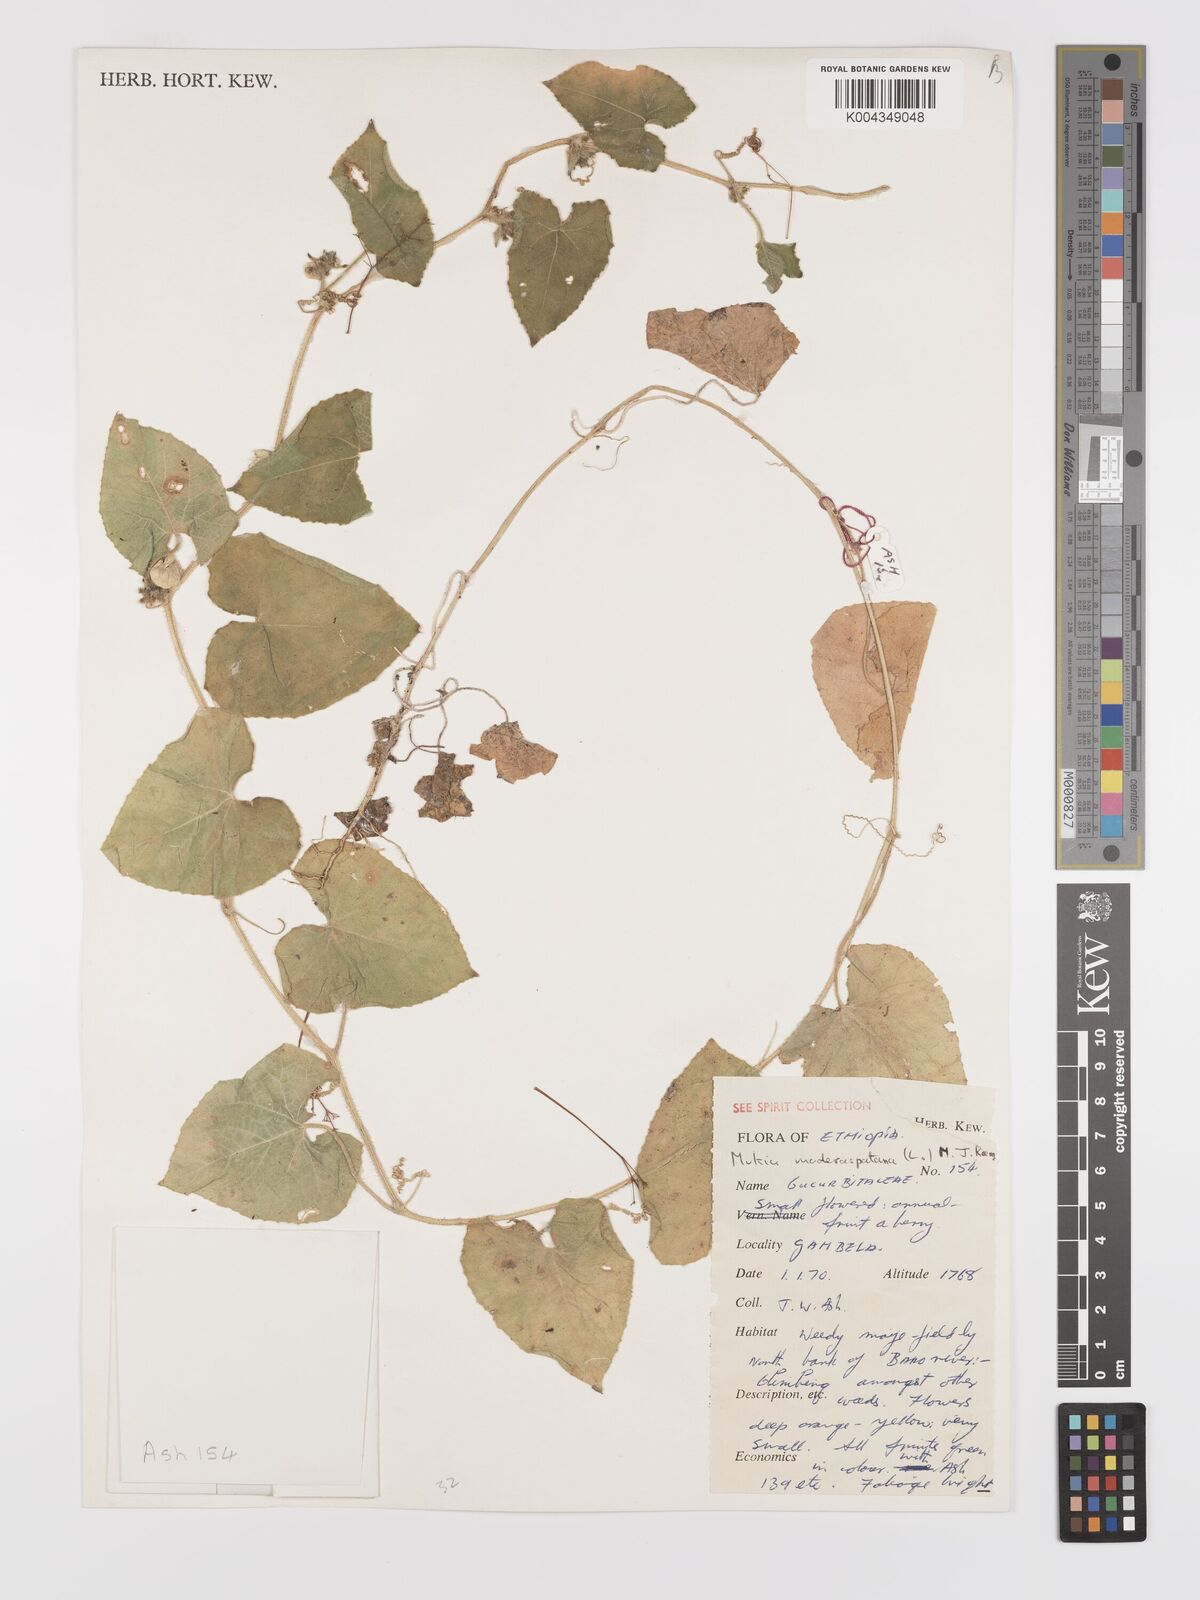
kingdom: Plantae
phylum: Tracheophyta
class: Magnoliopsida
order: Cucurbitales
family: Cucurbitaceae
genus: Cucumis
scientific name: Cucumis maderaspatanus
